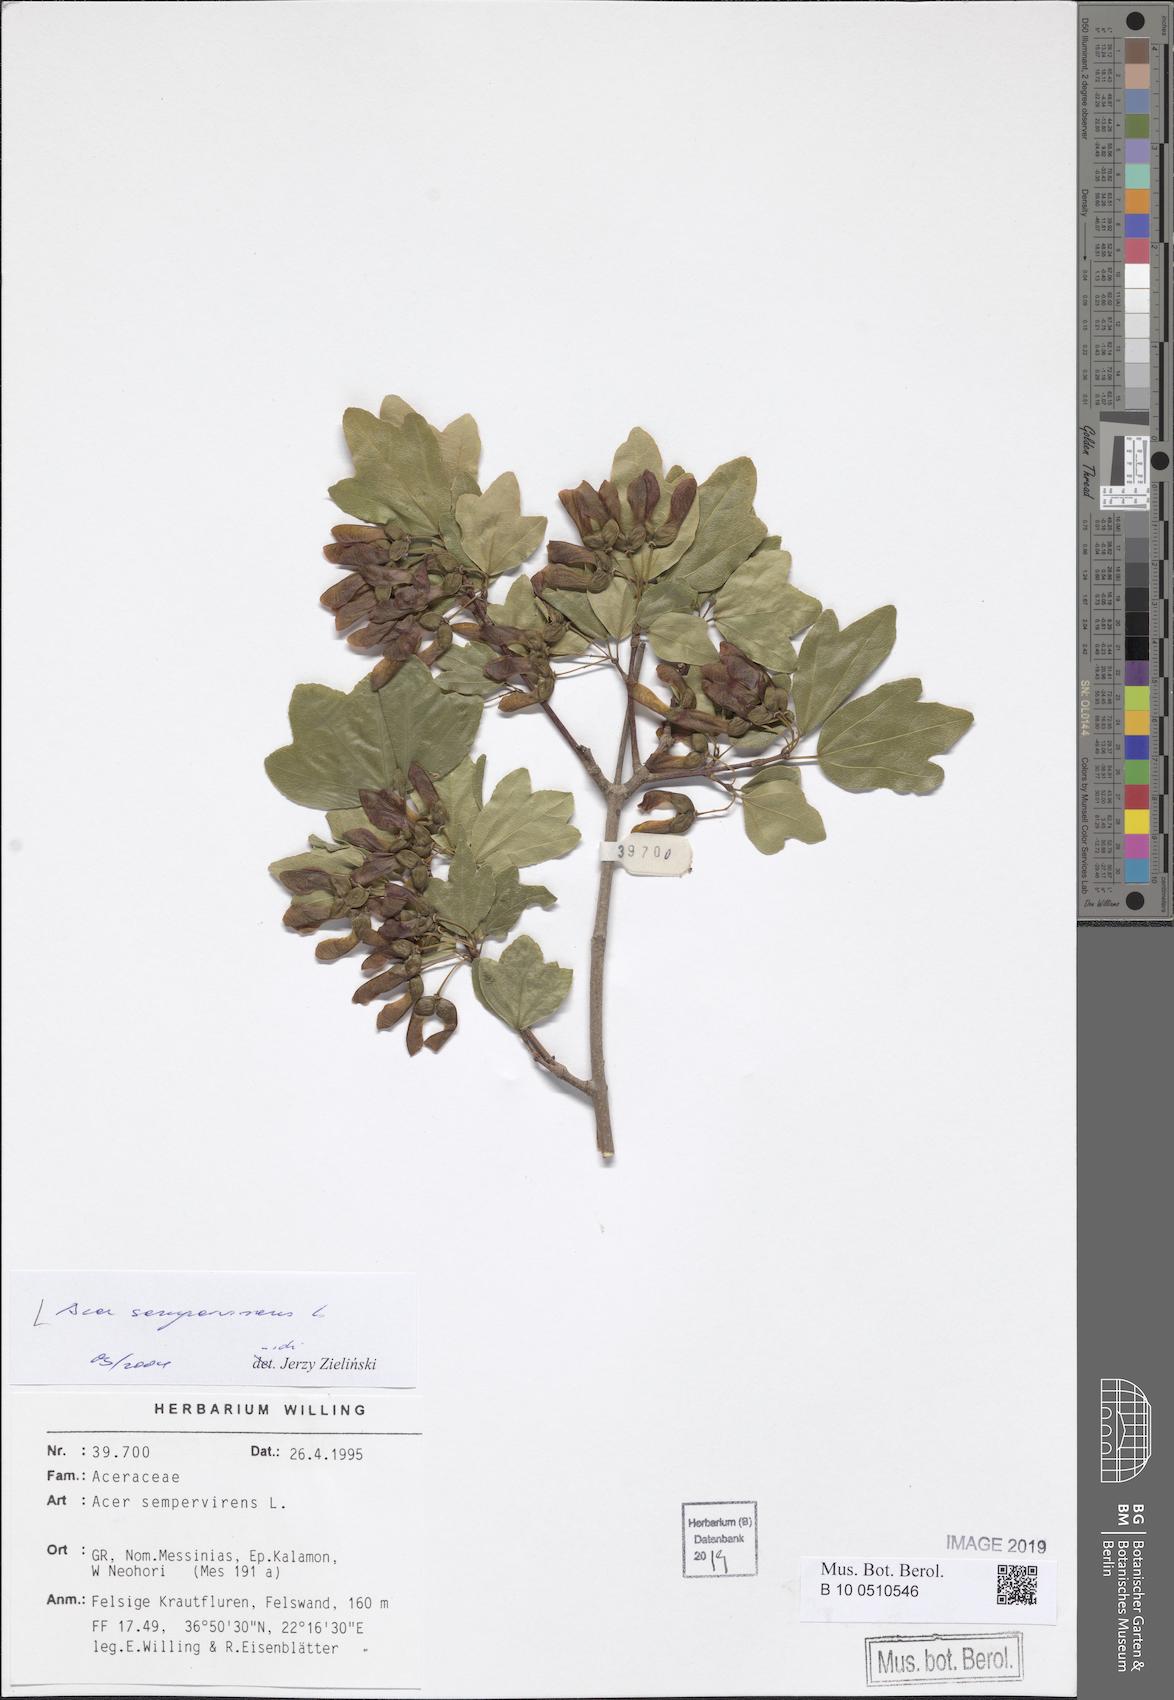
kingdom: Plantae
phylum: Tracheophyta
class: Magnoliopsida
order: Sapindales
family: Sapindaceae
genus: Acer
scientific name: Acer sempervirens
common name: Cretan maple
